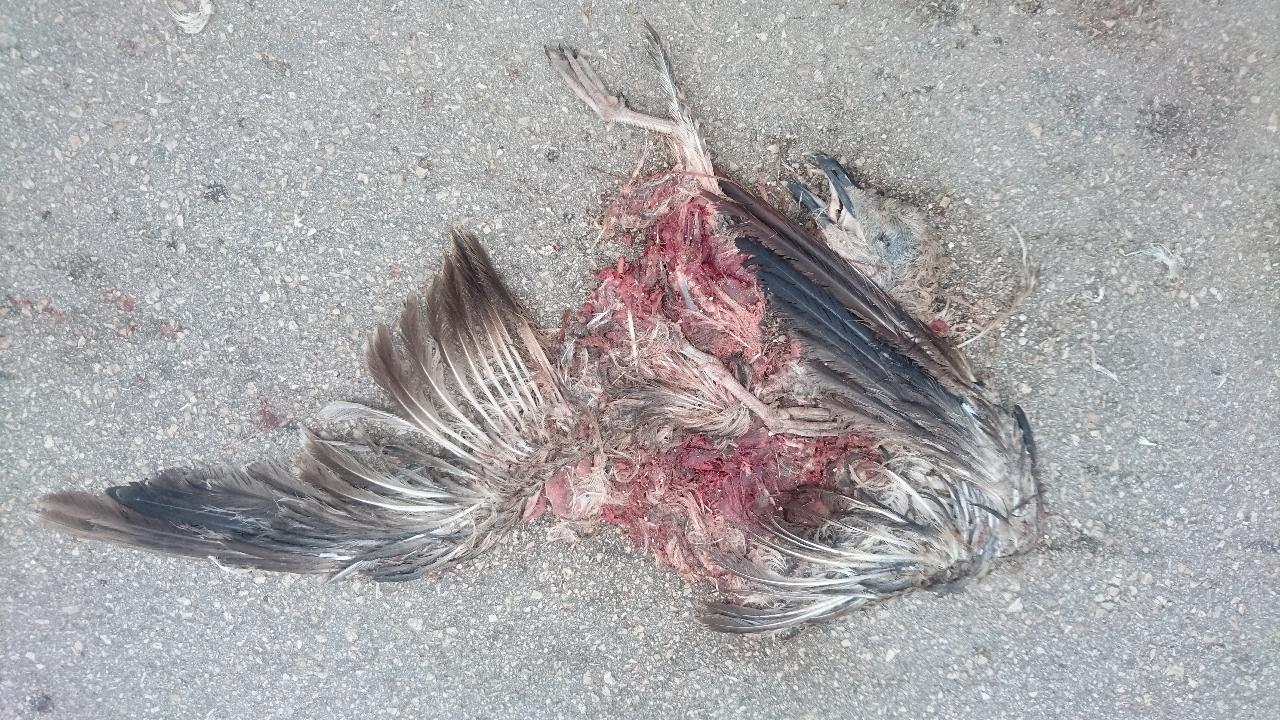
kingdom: Animalia
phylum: Chordata
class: Aves
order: Charadriiformes
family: Laridae
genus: Larus
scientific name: Larus michahellis
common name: Yellow-legged gull
